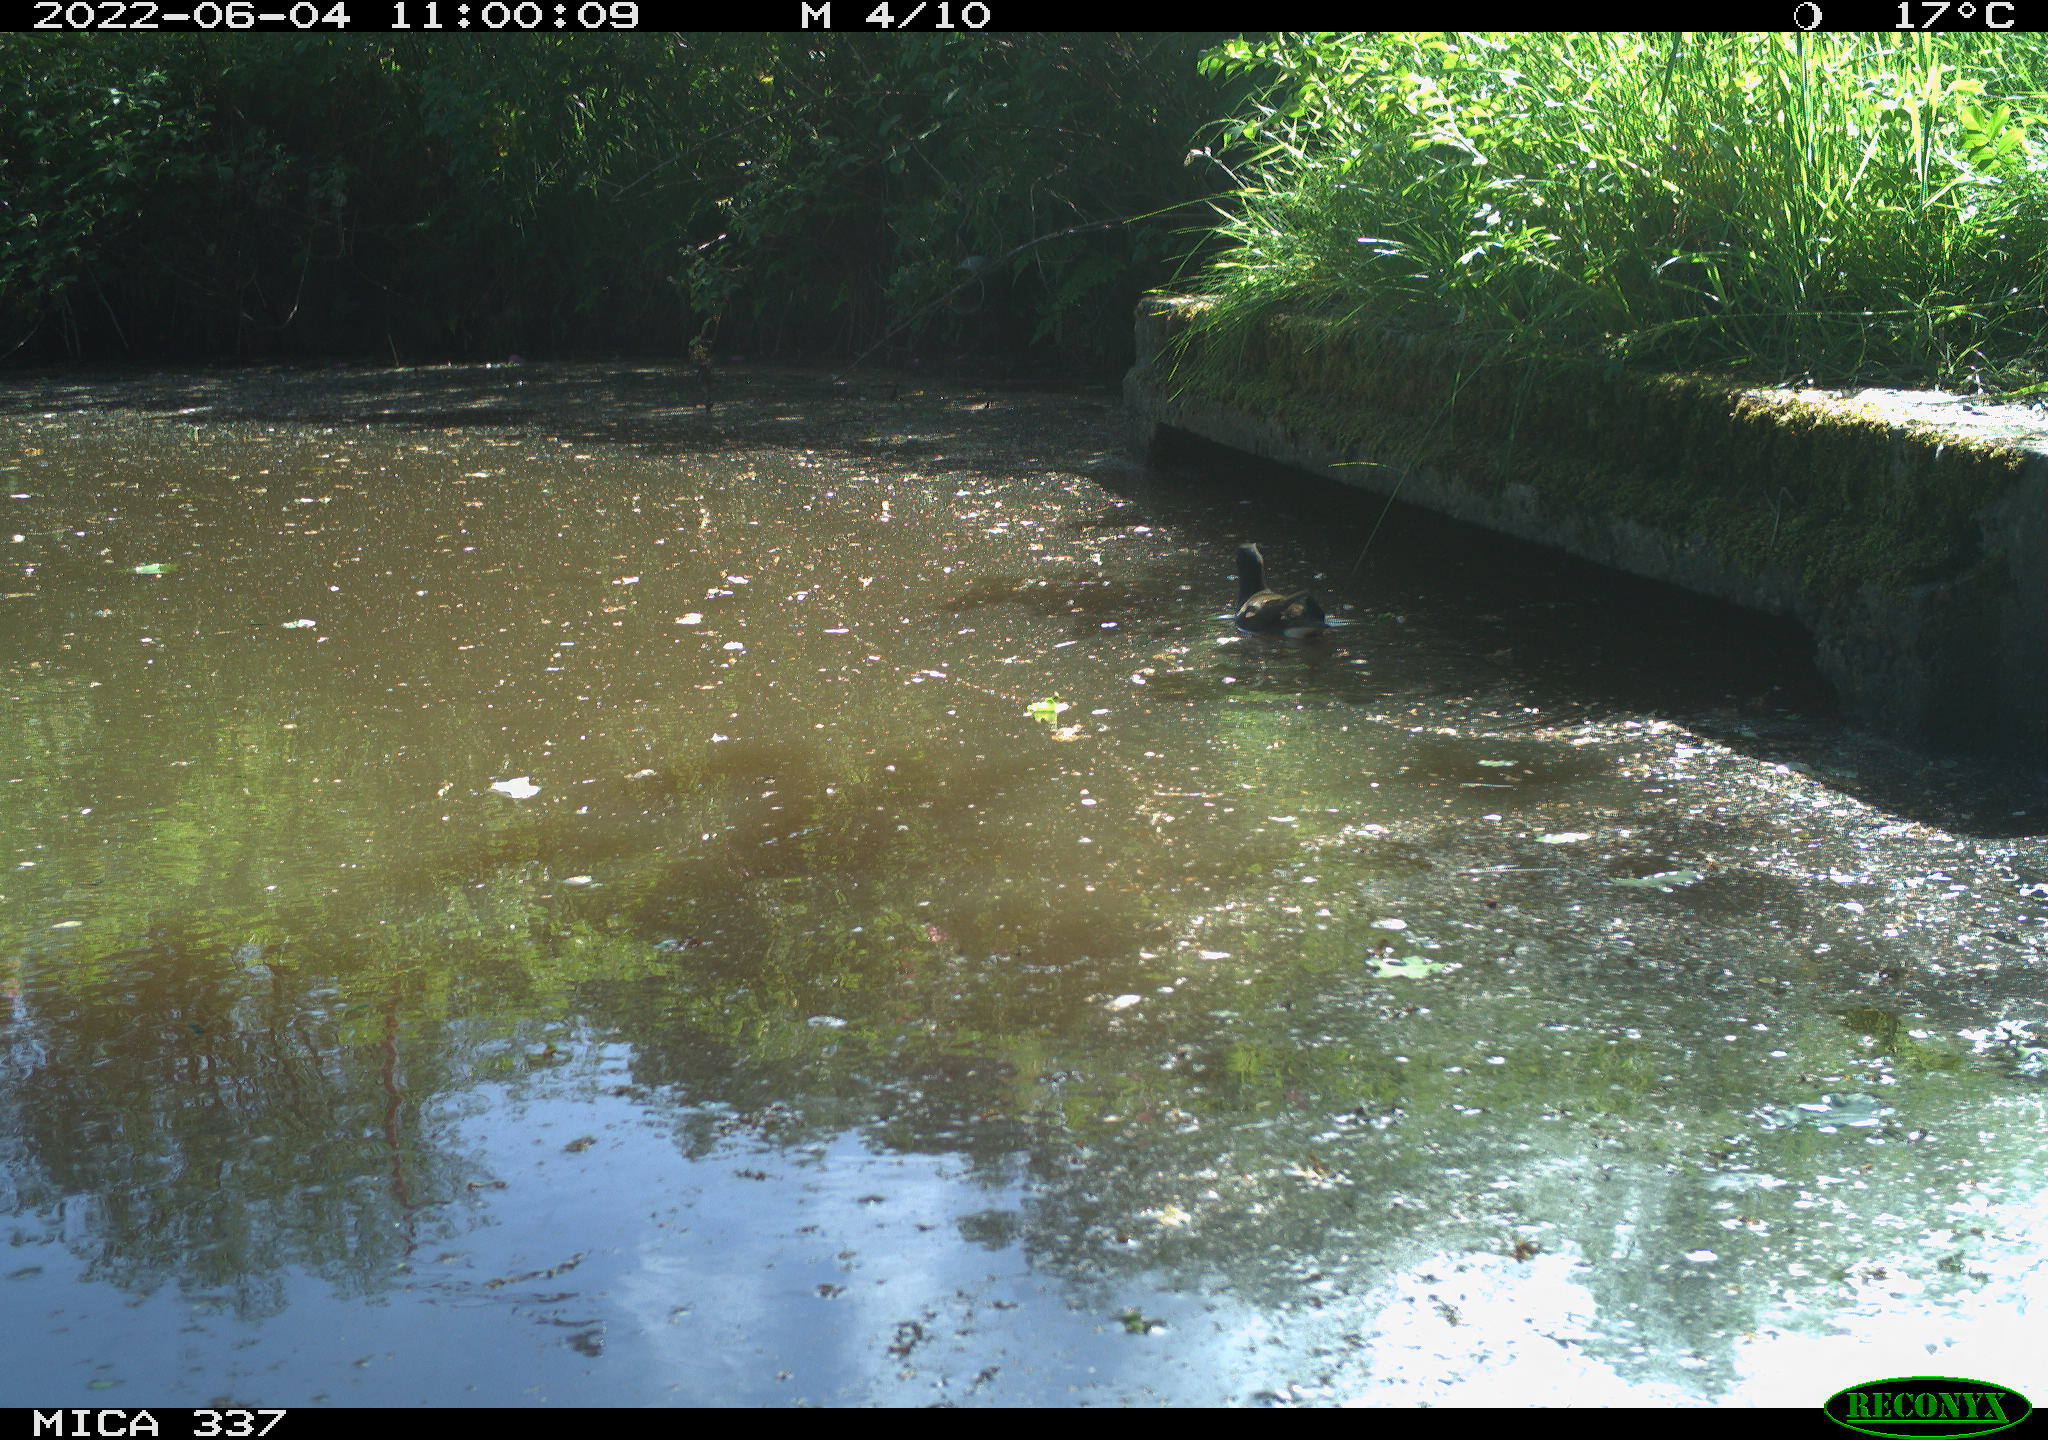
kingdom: Animalia
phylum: Chordata
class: Aves
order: Gruiformes
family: Rallidae
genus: Gallinula
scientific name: Gallinula chloropus
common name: Common moorhen
